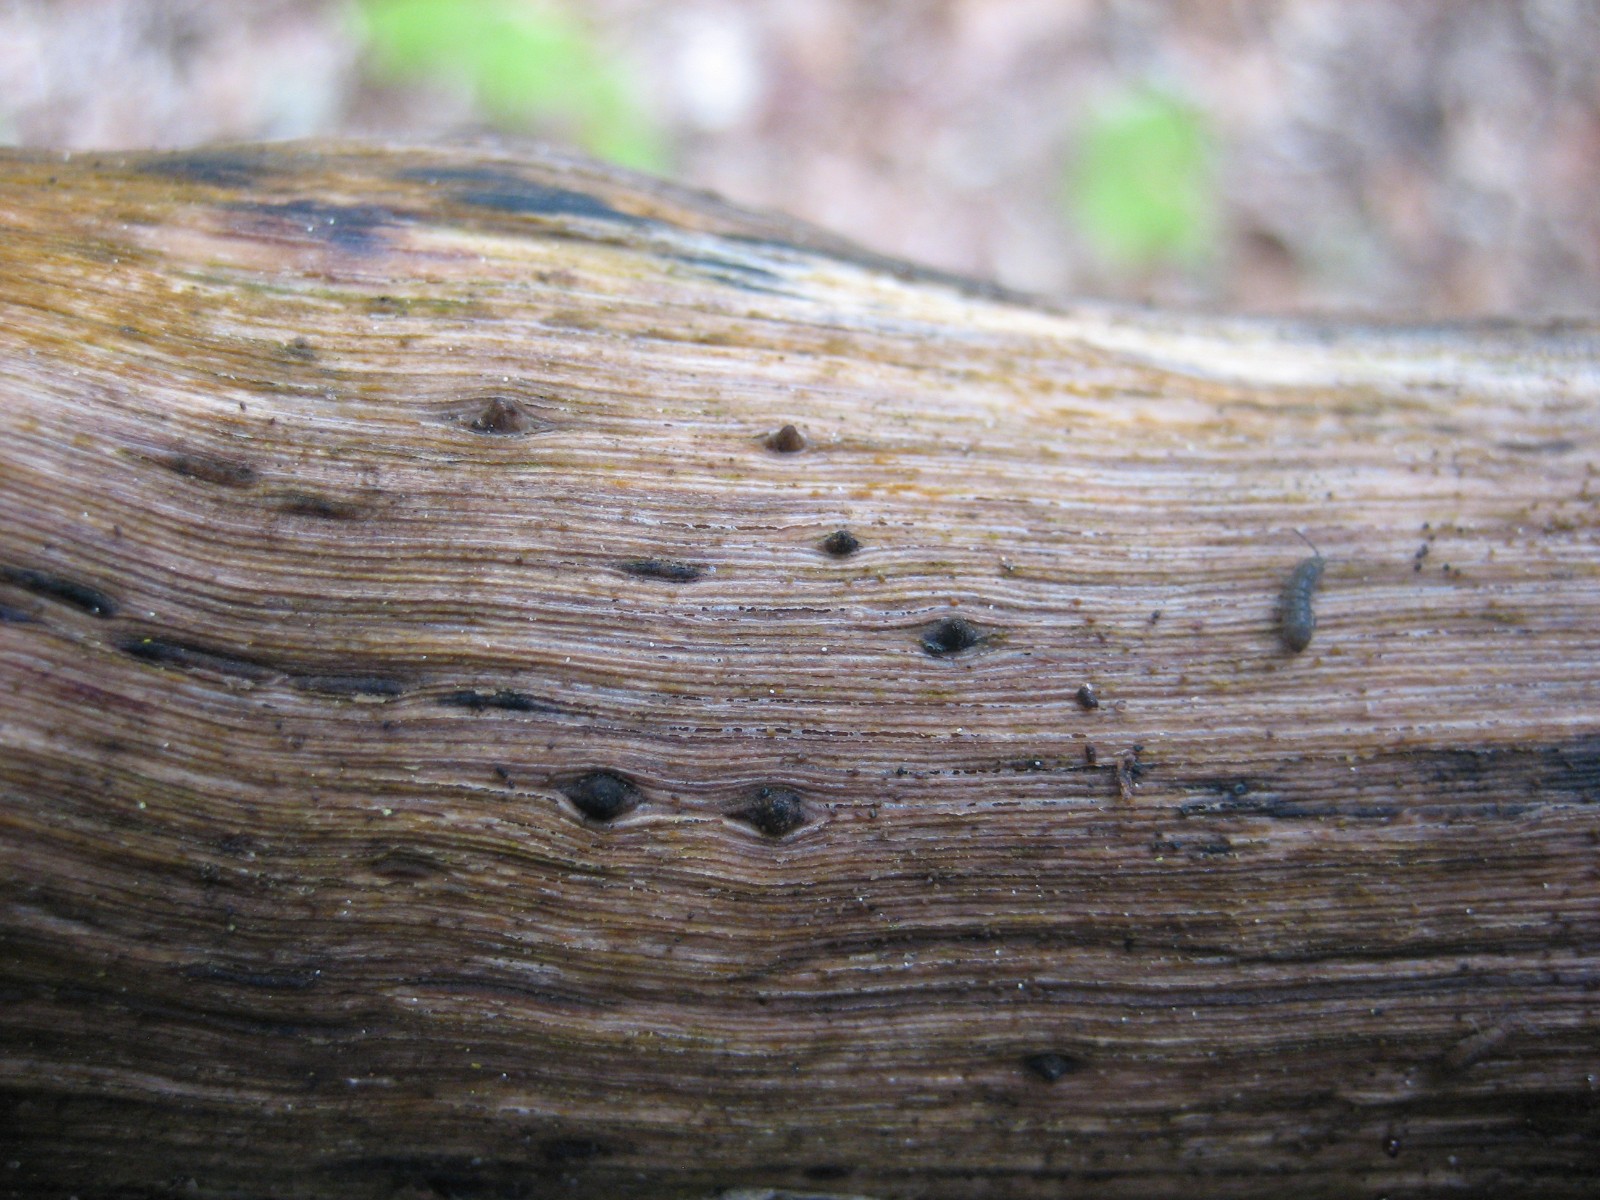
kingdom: Fungi
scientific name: Fungi
